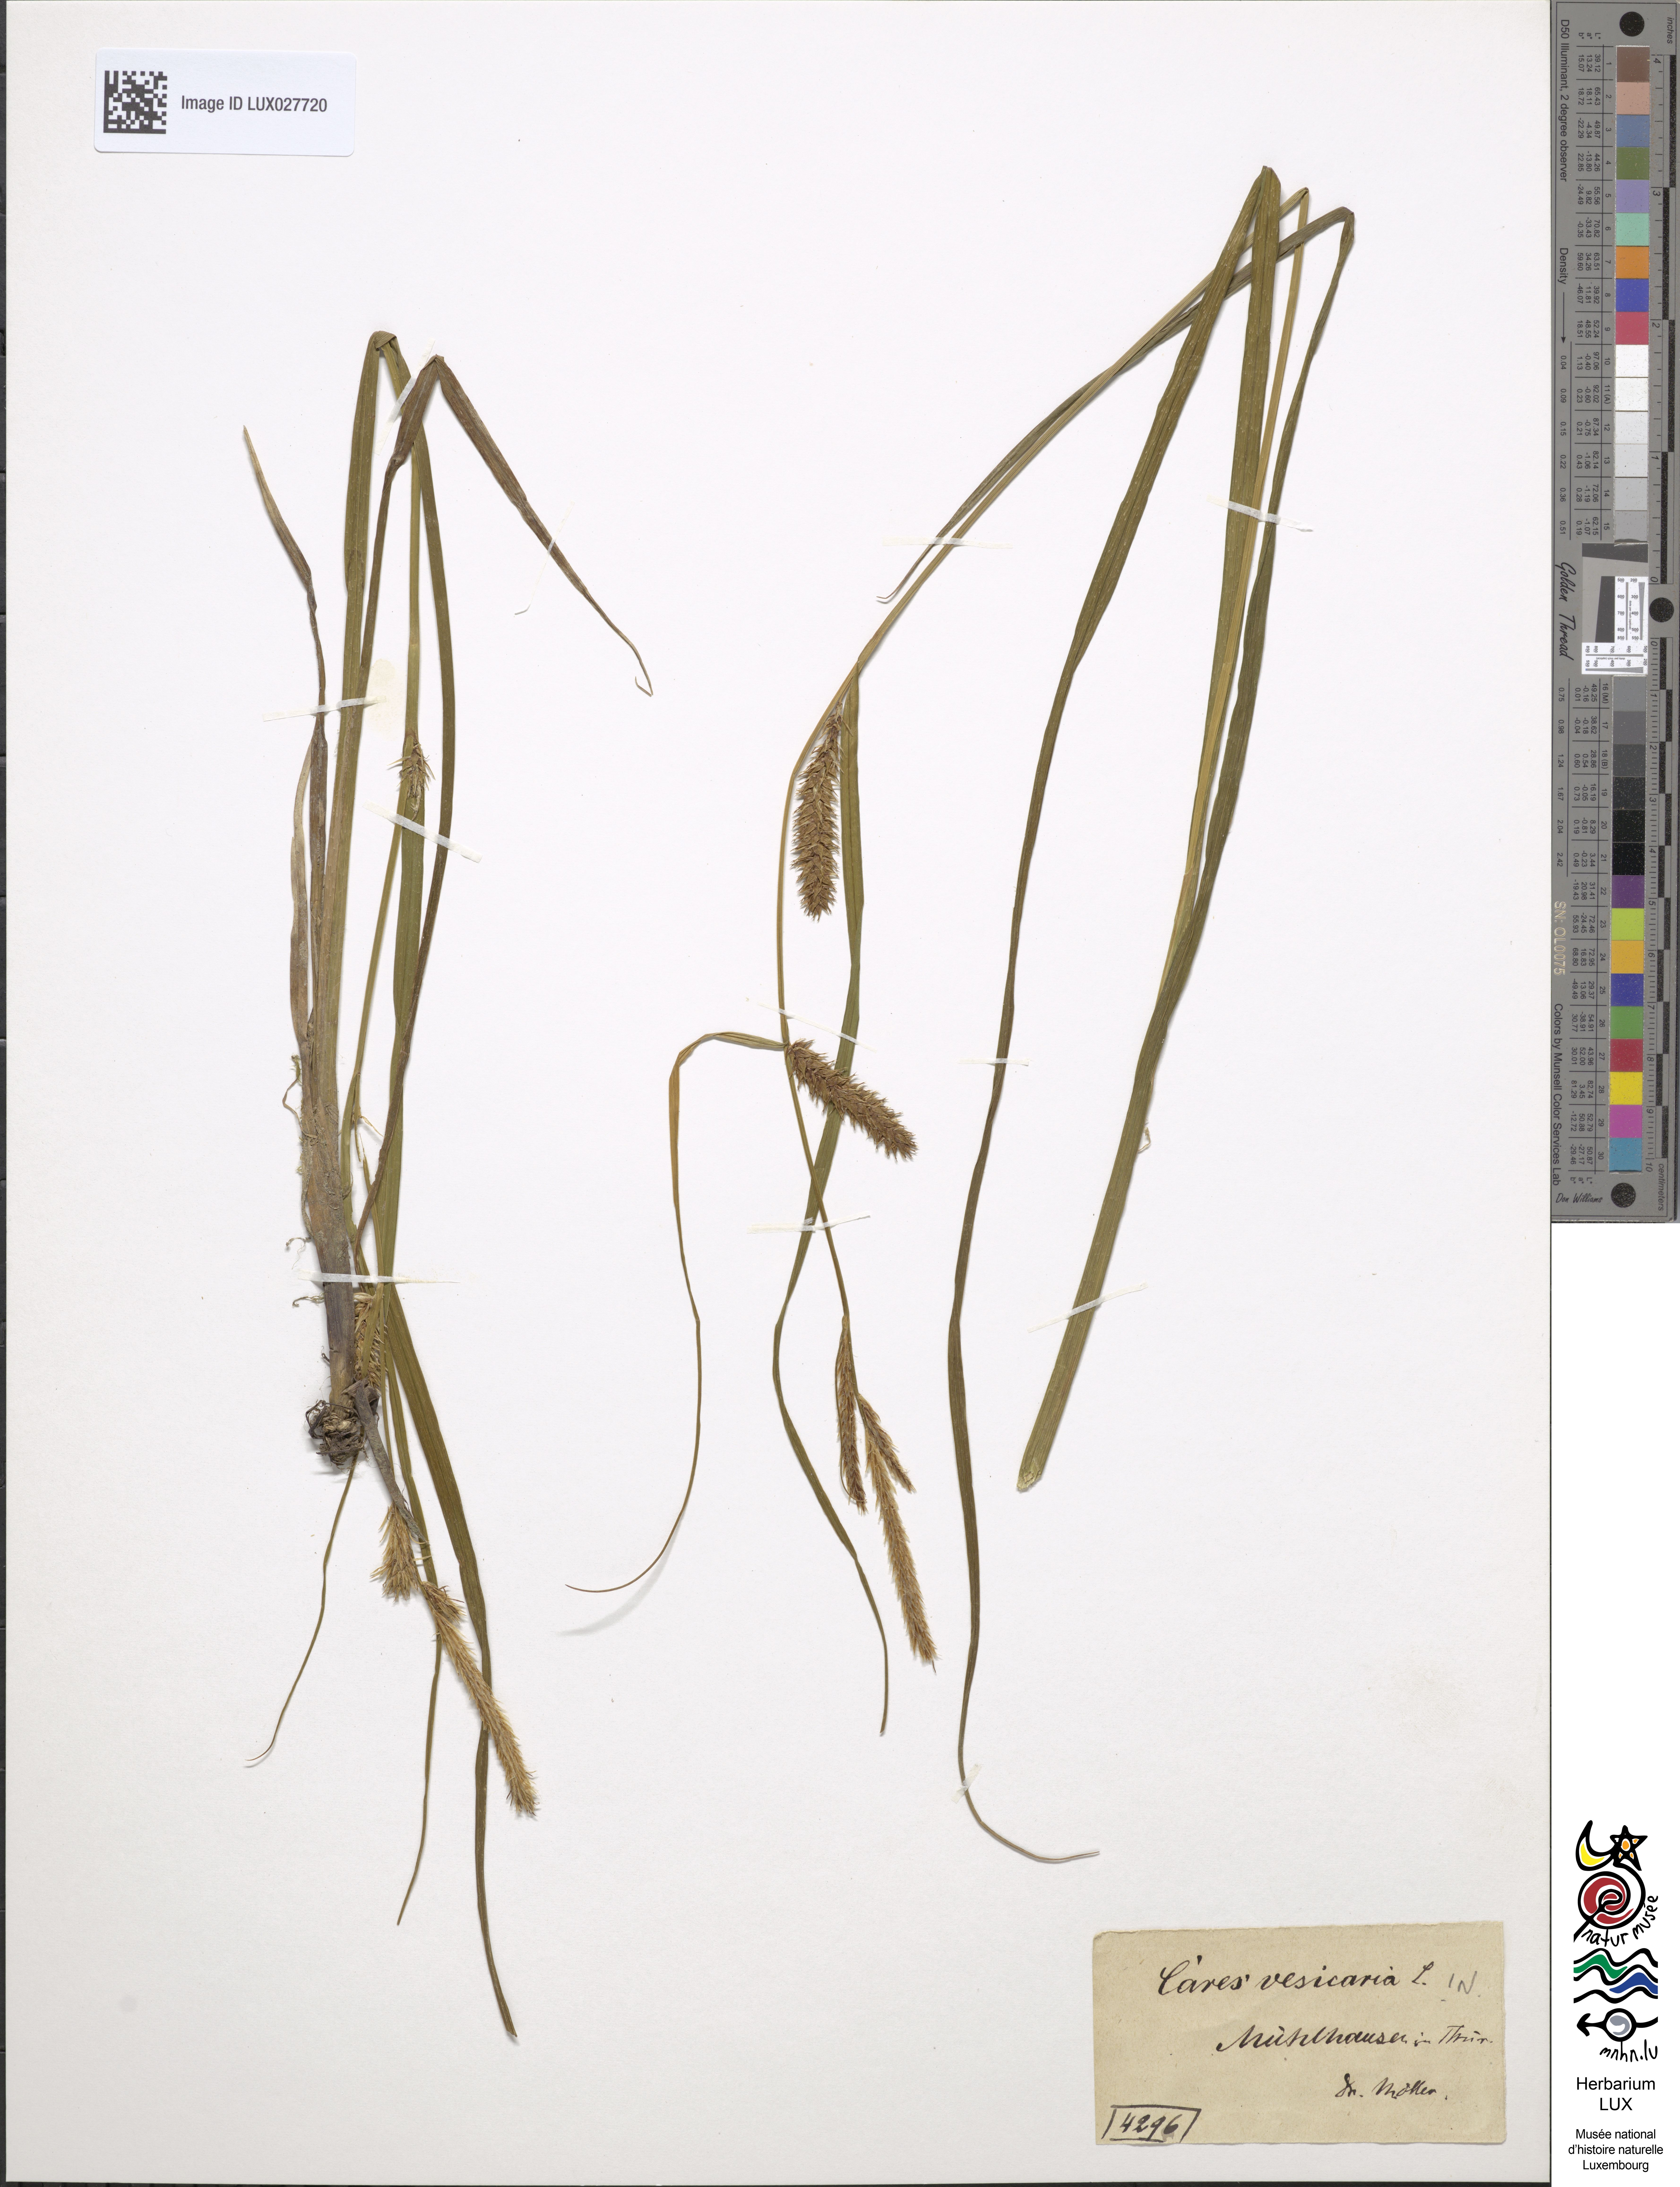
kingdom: Plantae
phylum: Tracheophyta
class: Liliopsida
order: Poales
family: Cyperaceae
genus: Carex
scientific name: Carex vesicaria
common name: Bladder-sedge
